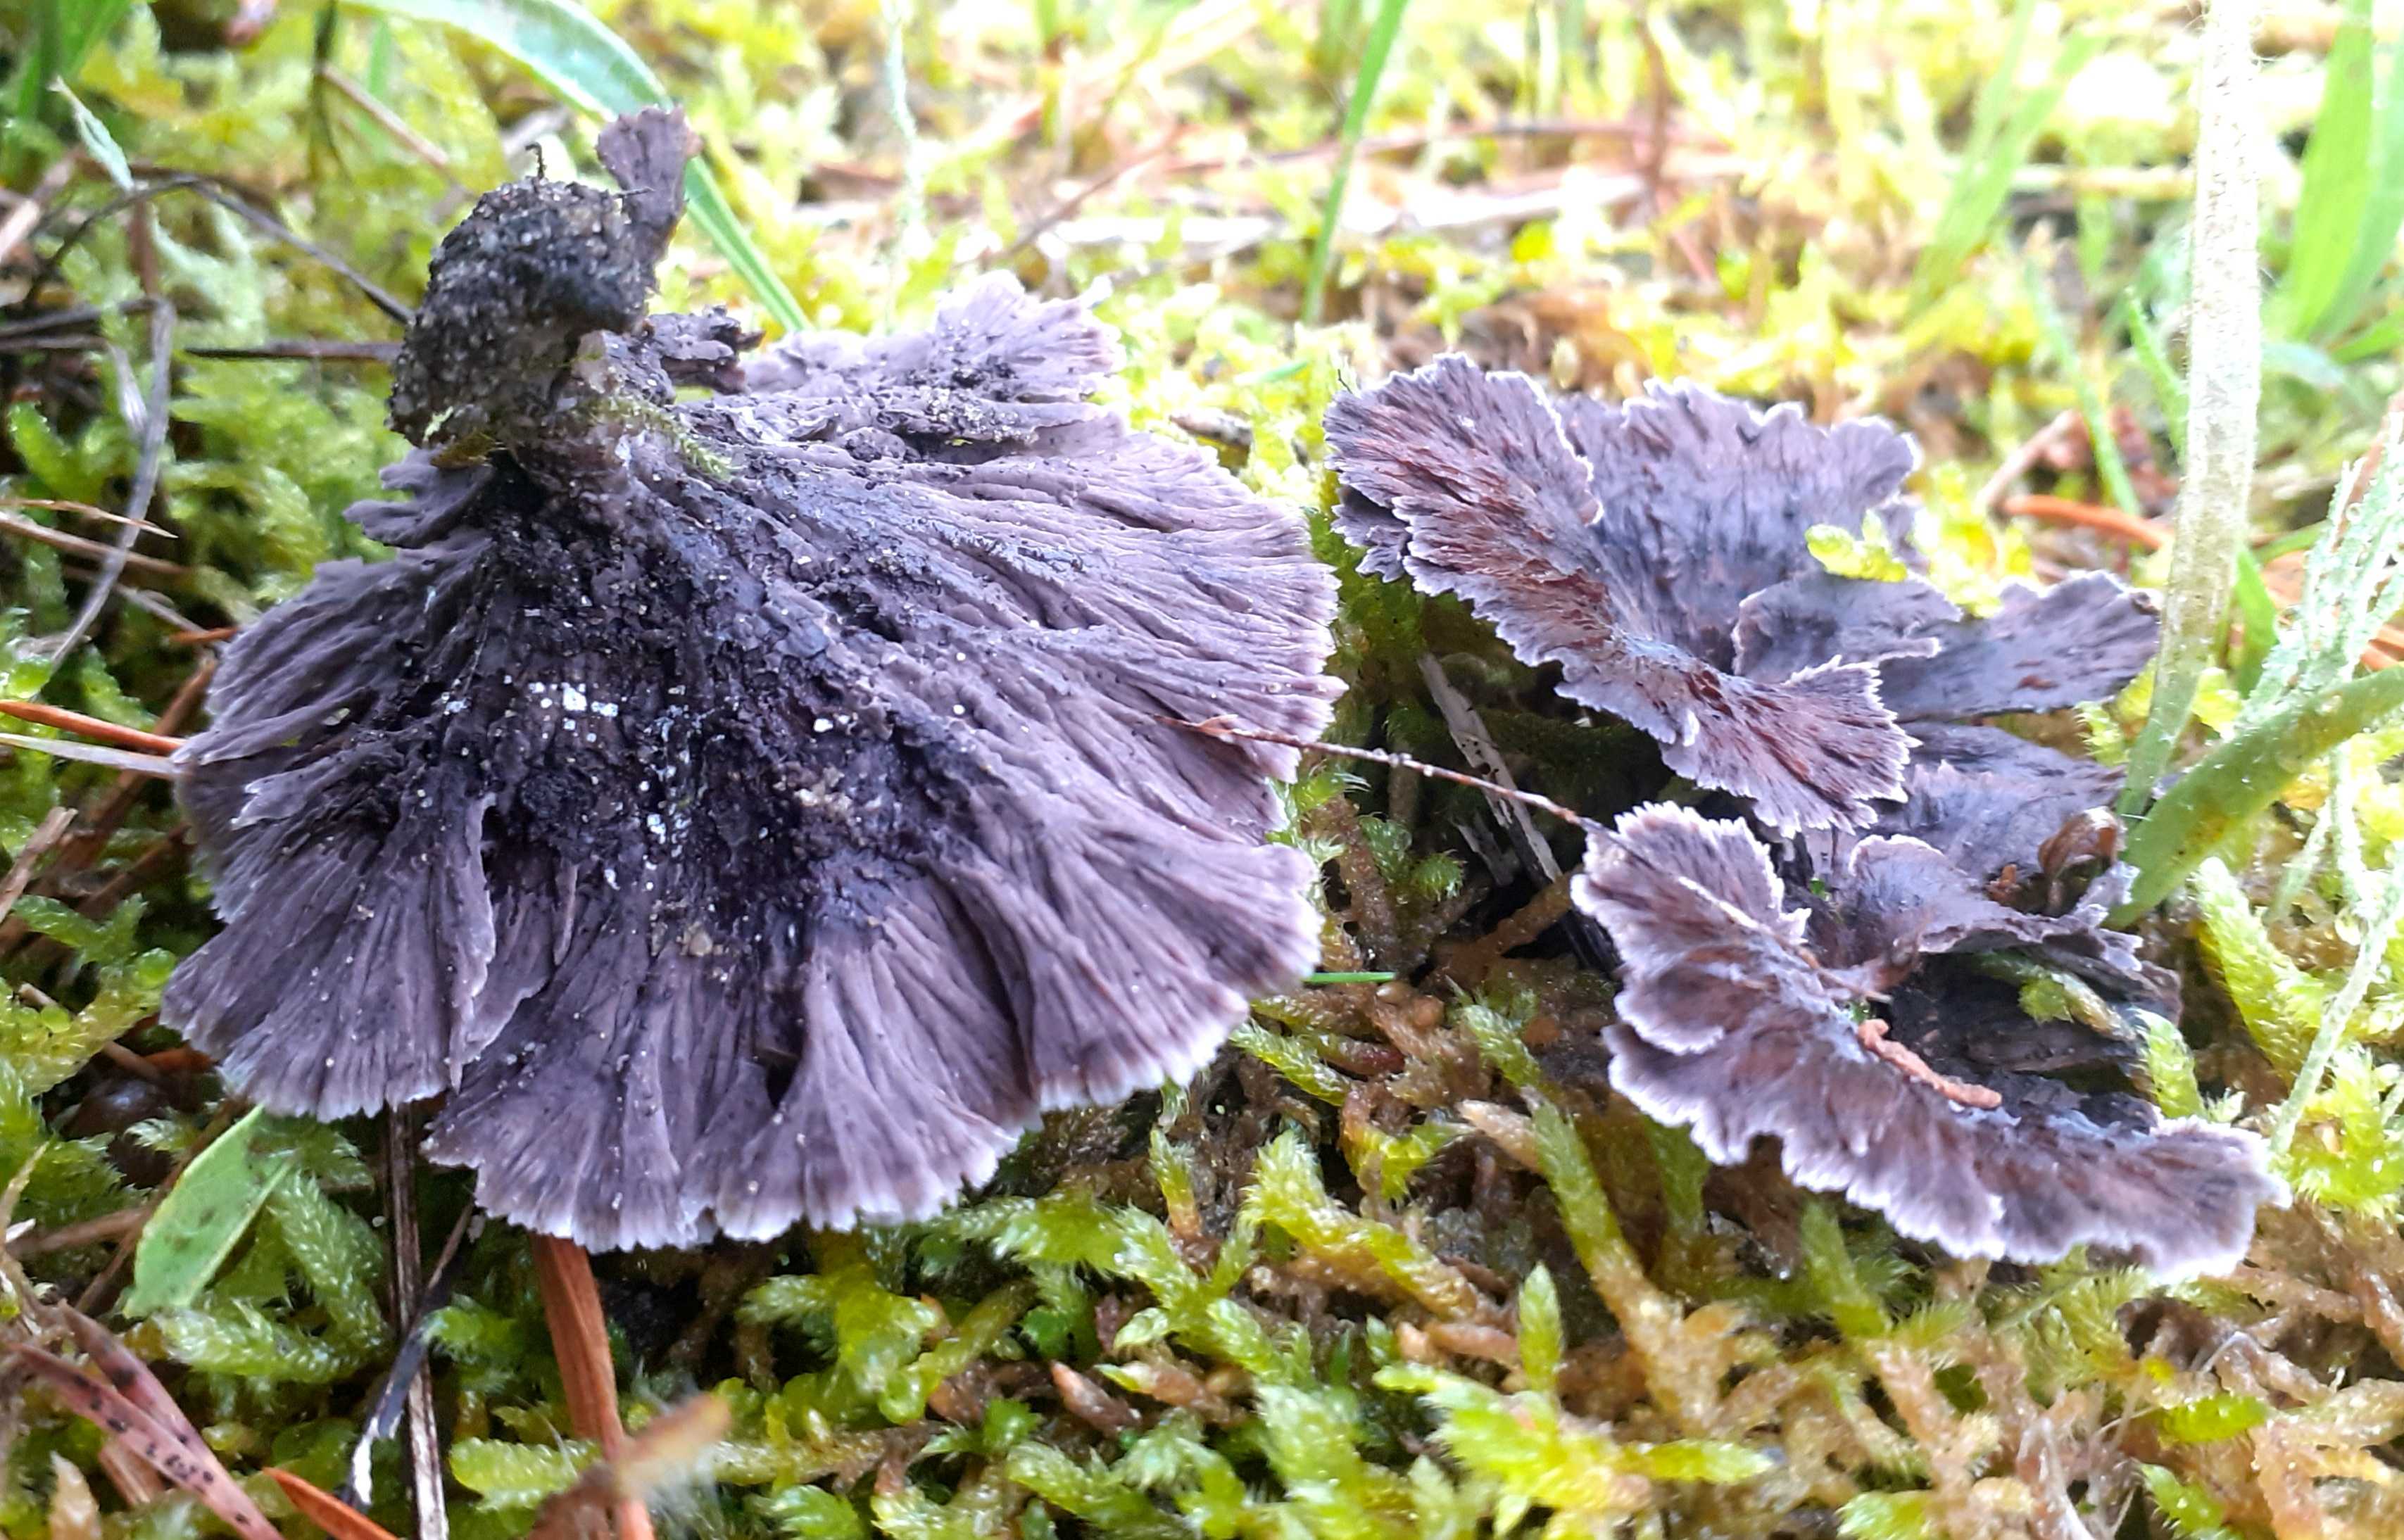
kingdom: Fungi
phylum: Basidiomycota
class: Agaricomycetes
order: Thelephorales
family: Thelephoraceae
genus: Thelephora
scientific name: Thelephora caryophyllea
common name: tragt-frynsesvamp
